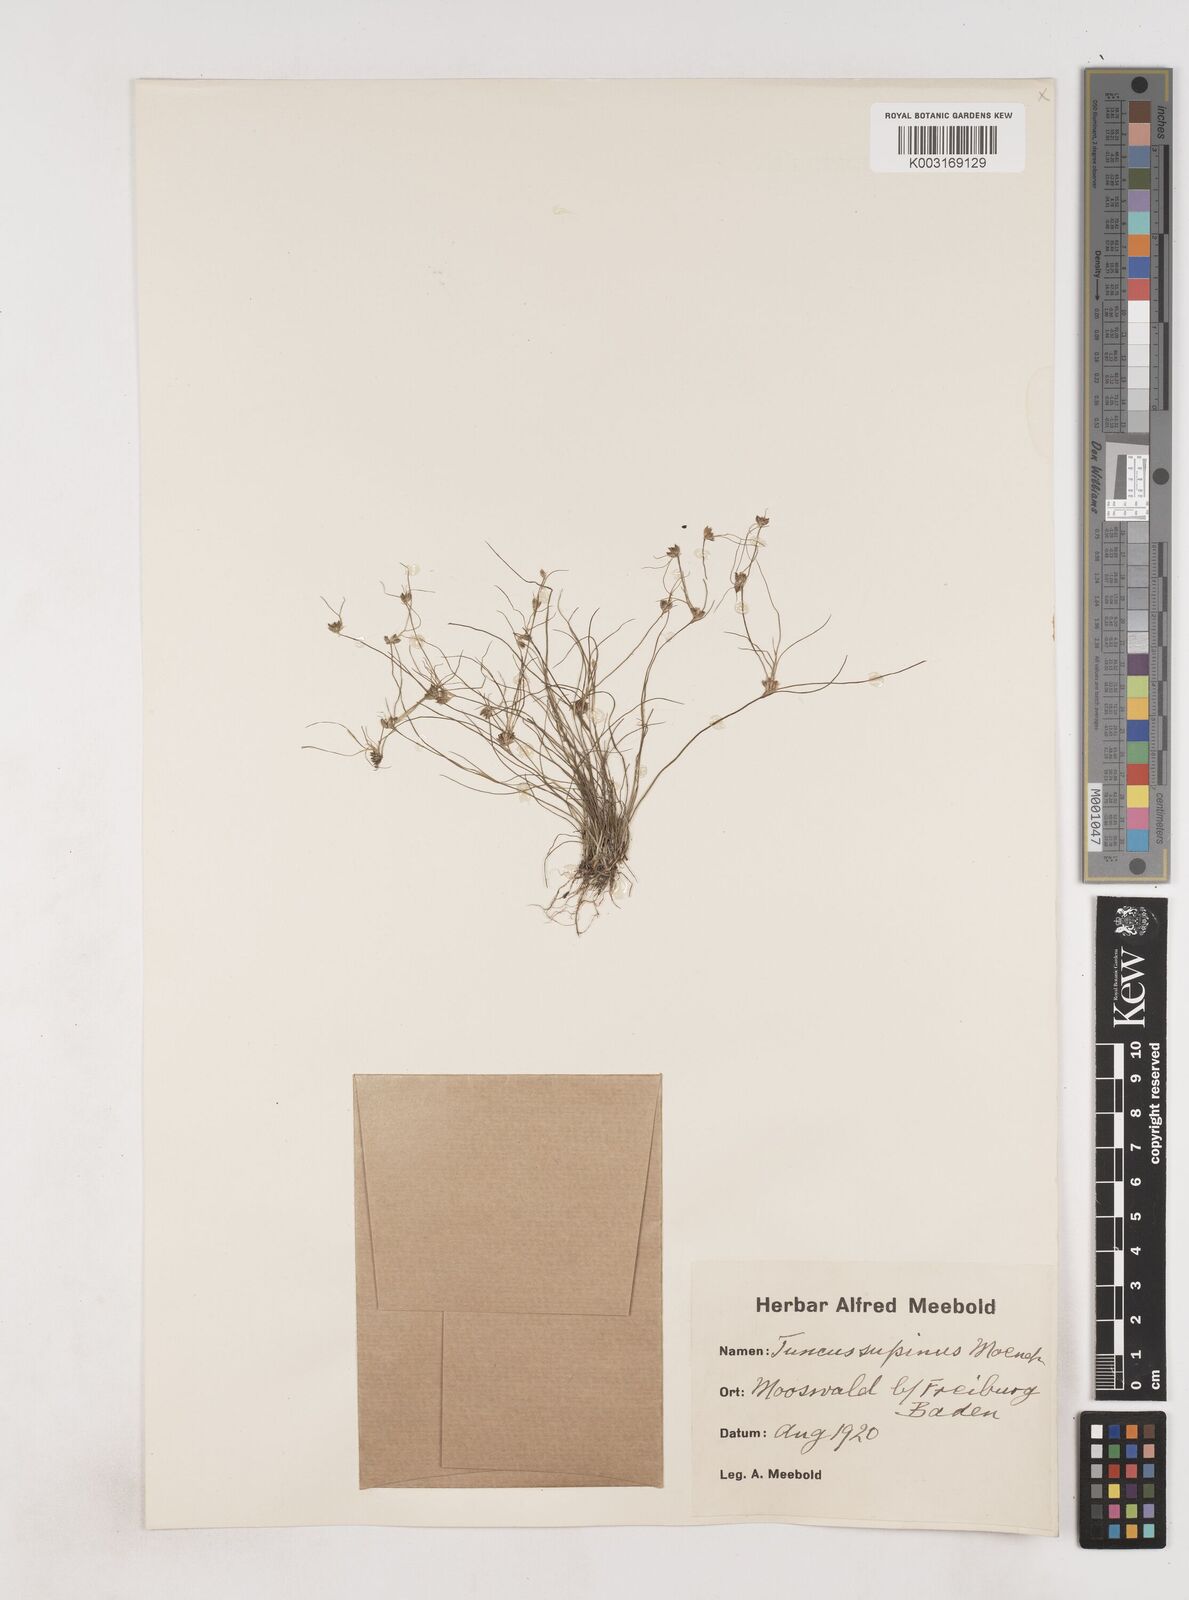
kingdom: Plantae
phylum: Tracheophyta
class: Liliopsida
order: Poales
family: Juncaceae
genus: Juncus
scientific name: Juncus bulbosus
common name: Bulbous rush
